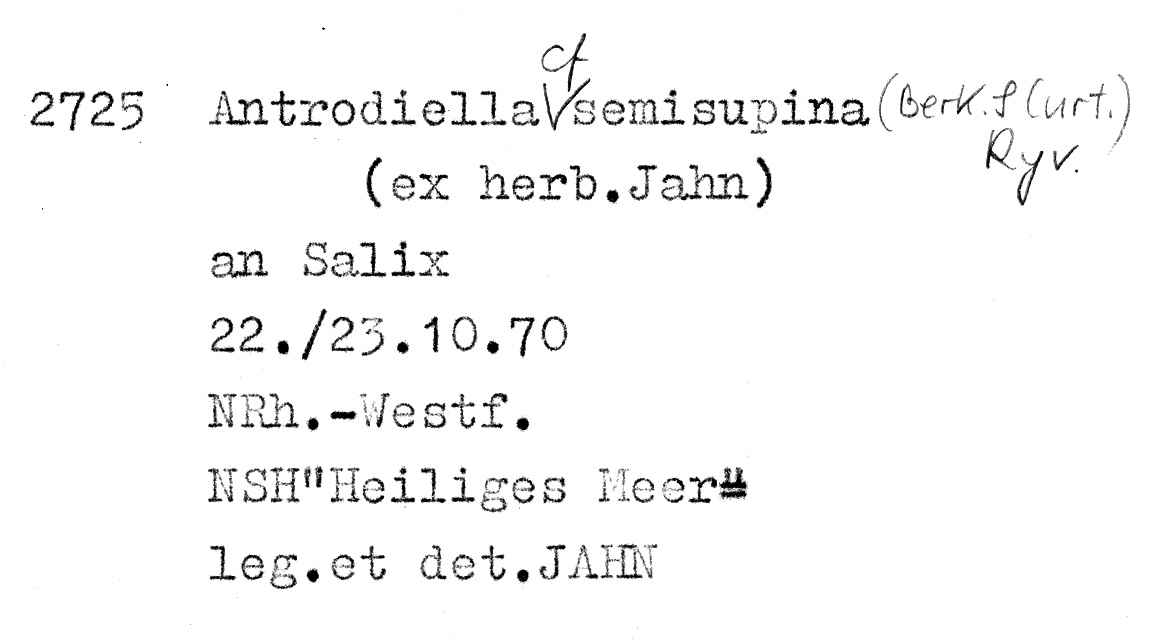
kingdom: Fungi
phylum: Basidiomycota
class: Agaricomycetes
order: Polyporales
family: Steccherinaceae
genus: Antrodiella
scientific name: Antrodiella semisupina
